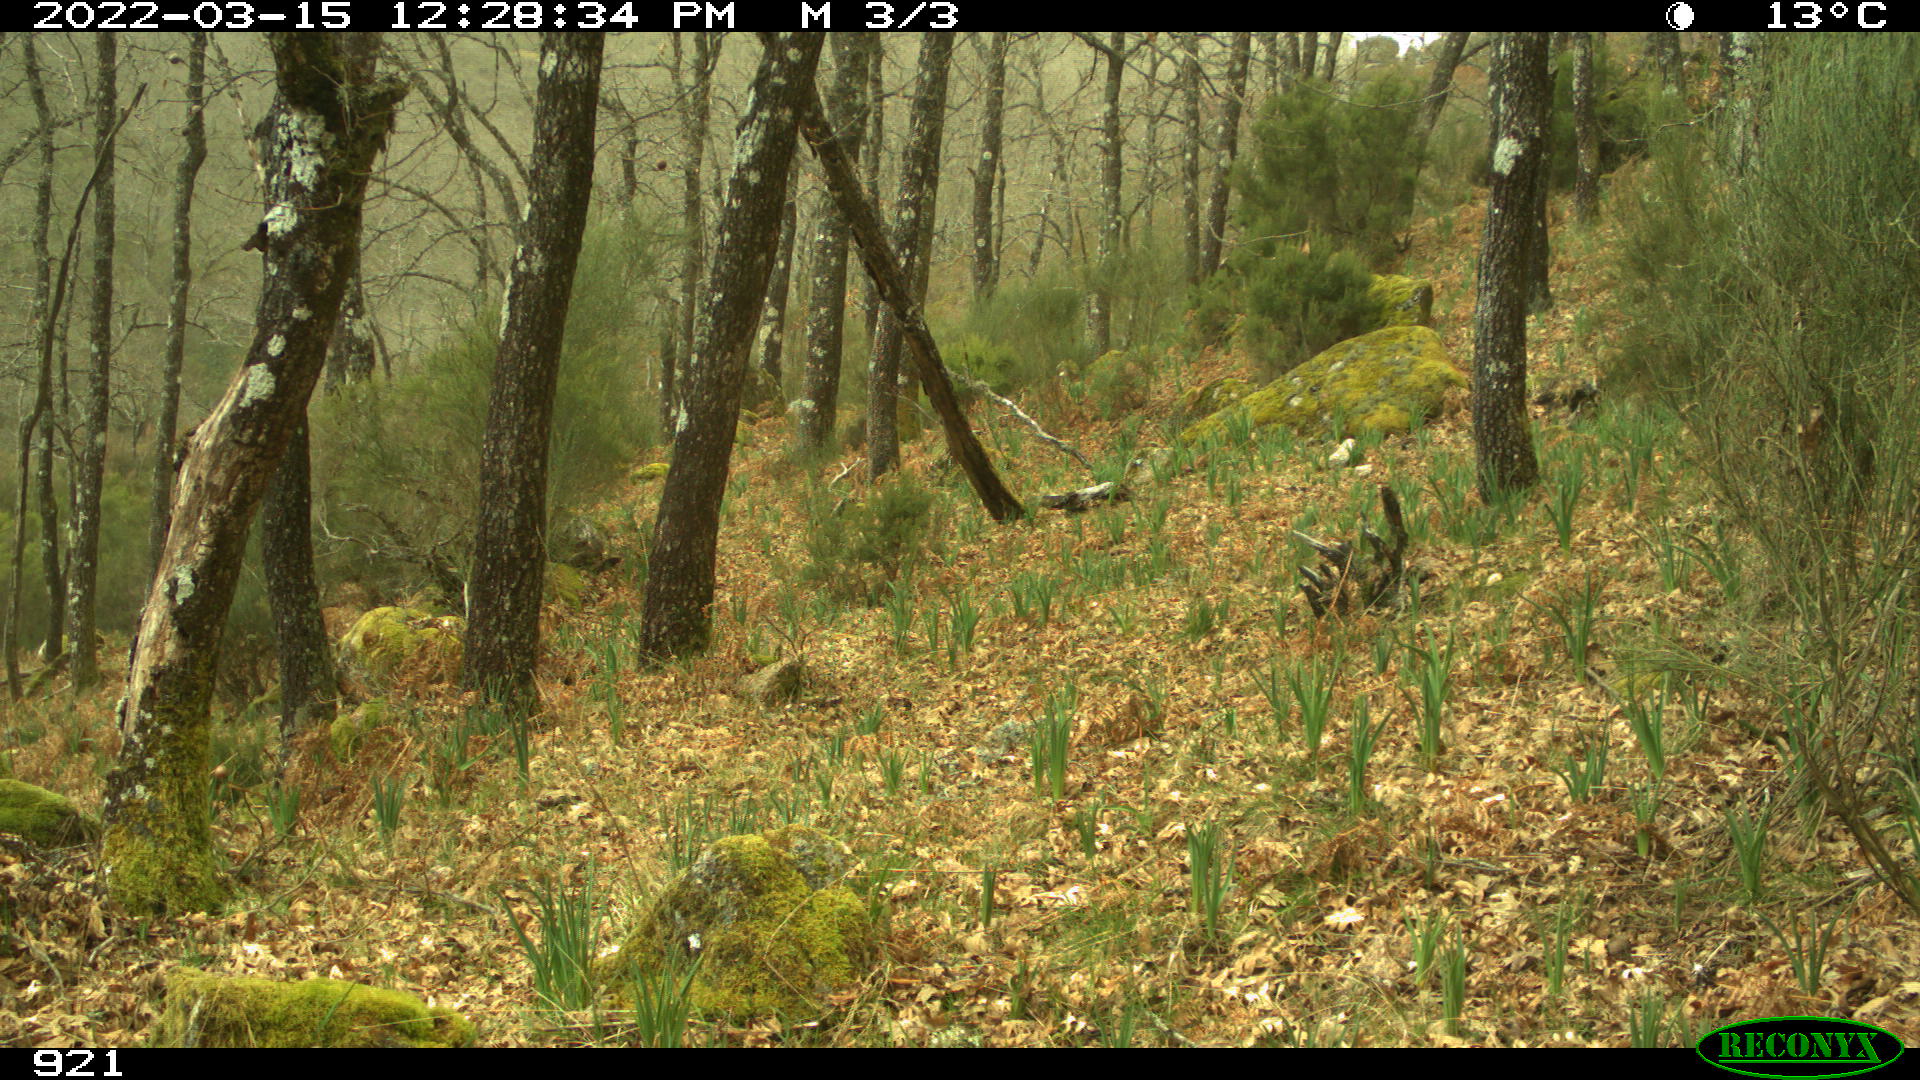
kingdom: Animalia
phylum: Chordata
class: Mammalia
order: Artiodactyla
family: Cervidae
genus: Capreolus
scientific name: Capreolus capreolus
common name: Western roe deer
